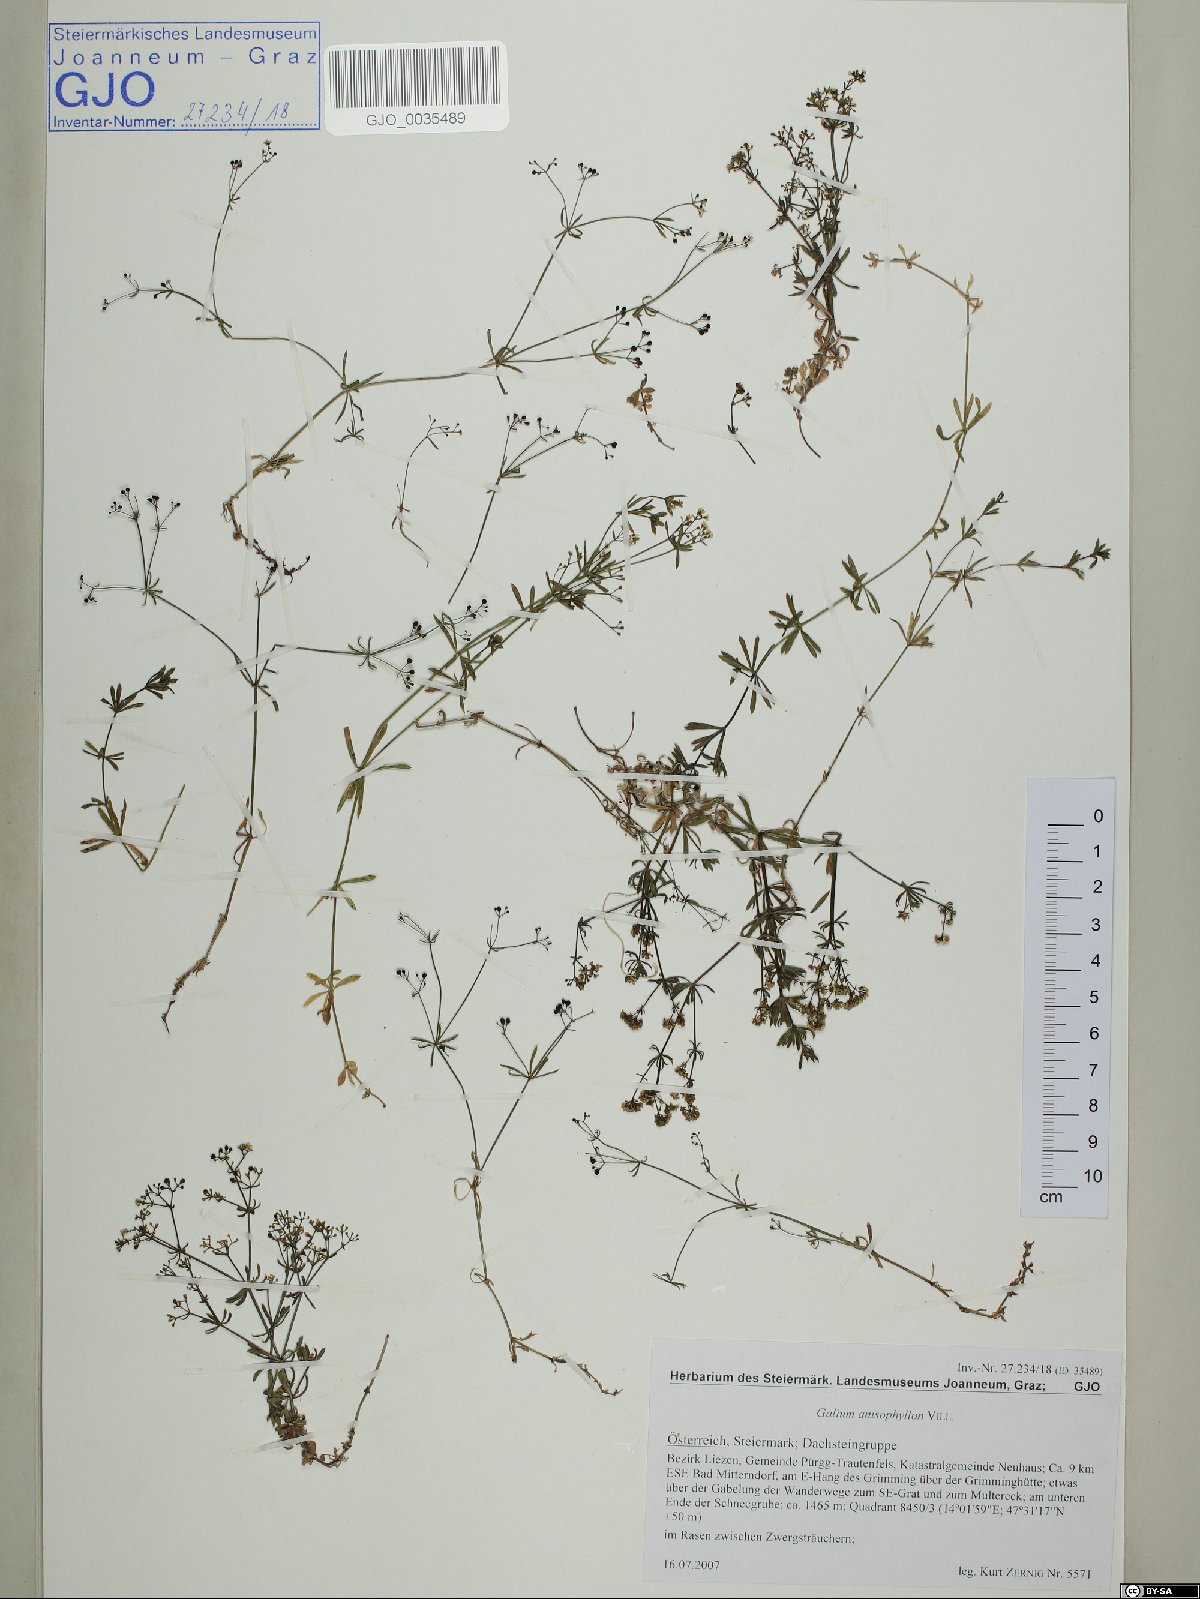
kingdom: Plantae
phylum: Tracheophyta
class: Magnoliopsida
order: Gentianales
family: Rubiaceae
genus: Galium
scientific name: Galium anisophyllon
